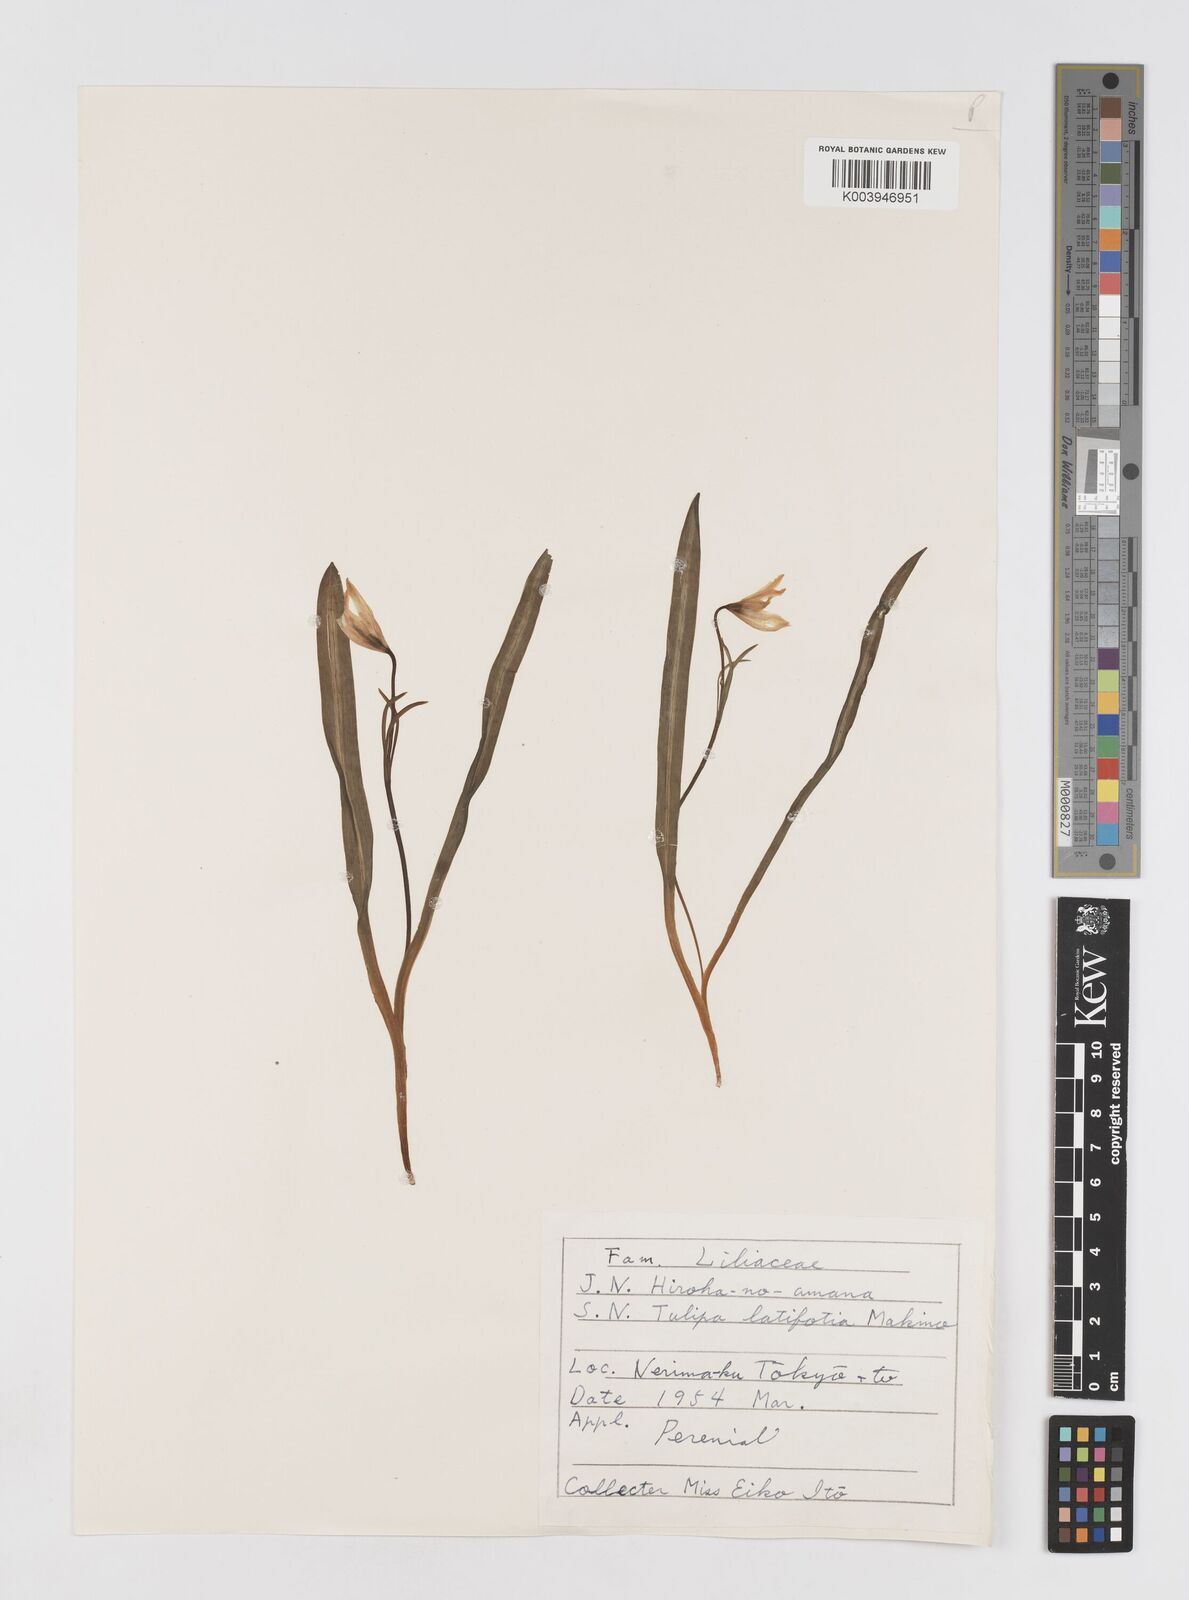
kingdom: Plantae
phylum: Tracheophyta
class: Liliopsida
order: Liliales
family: Liliaceae
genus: Amana
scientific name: Amana erythronioides
